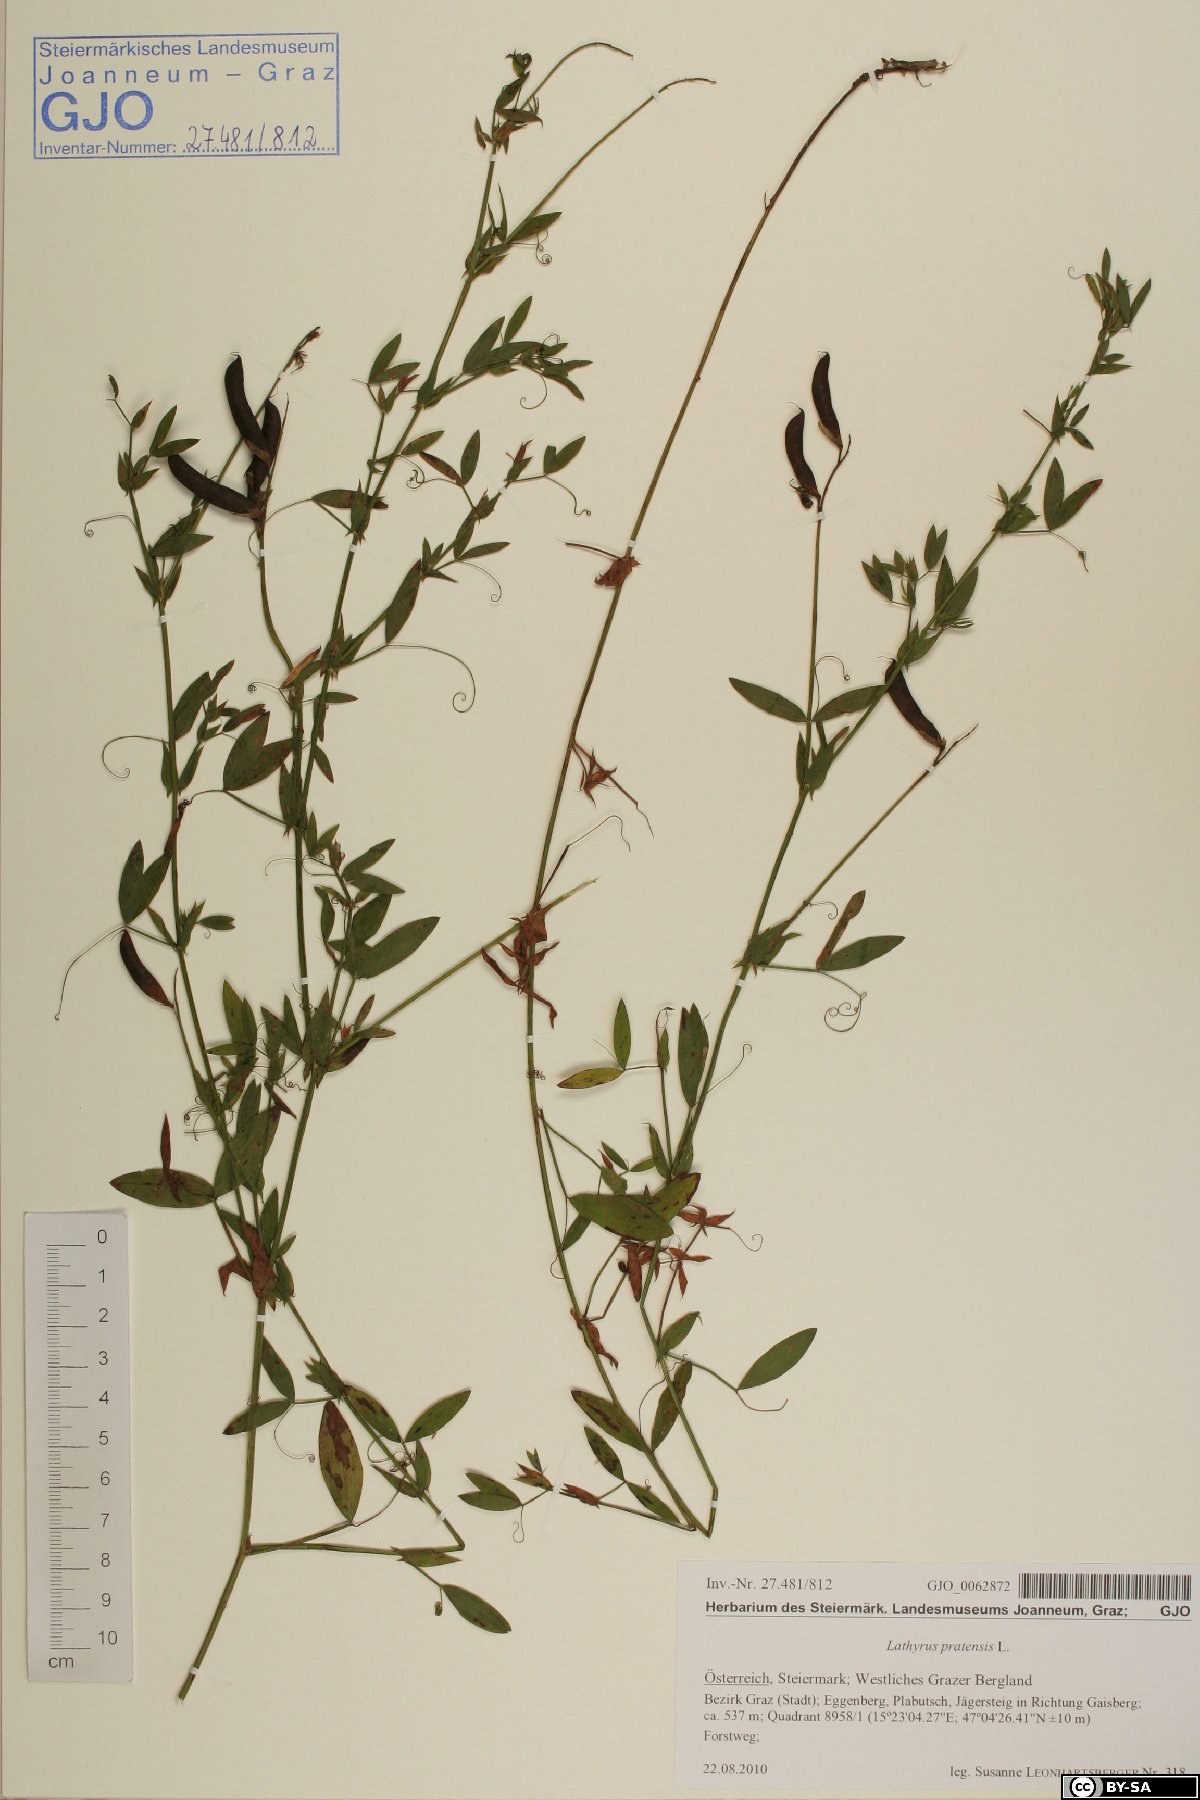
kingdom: Plantae
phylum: Tracheophyta
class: Magnoliopsida
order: Fabales
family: Fabaceae
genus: Lathyrus
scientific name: Lathyrus pratensis
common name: Meadow vetchling
